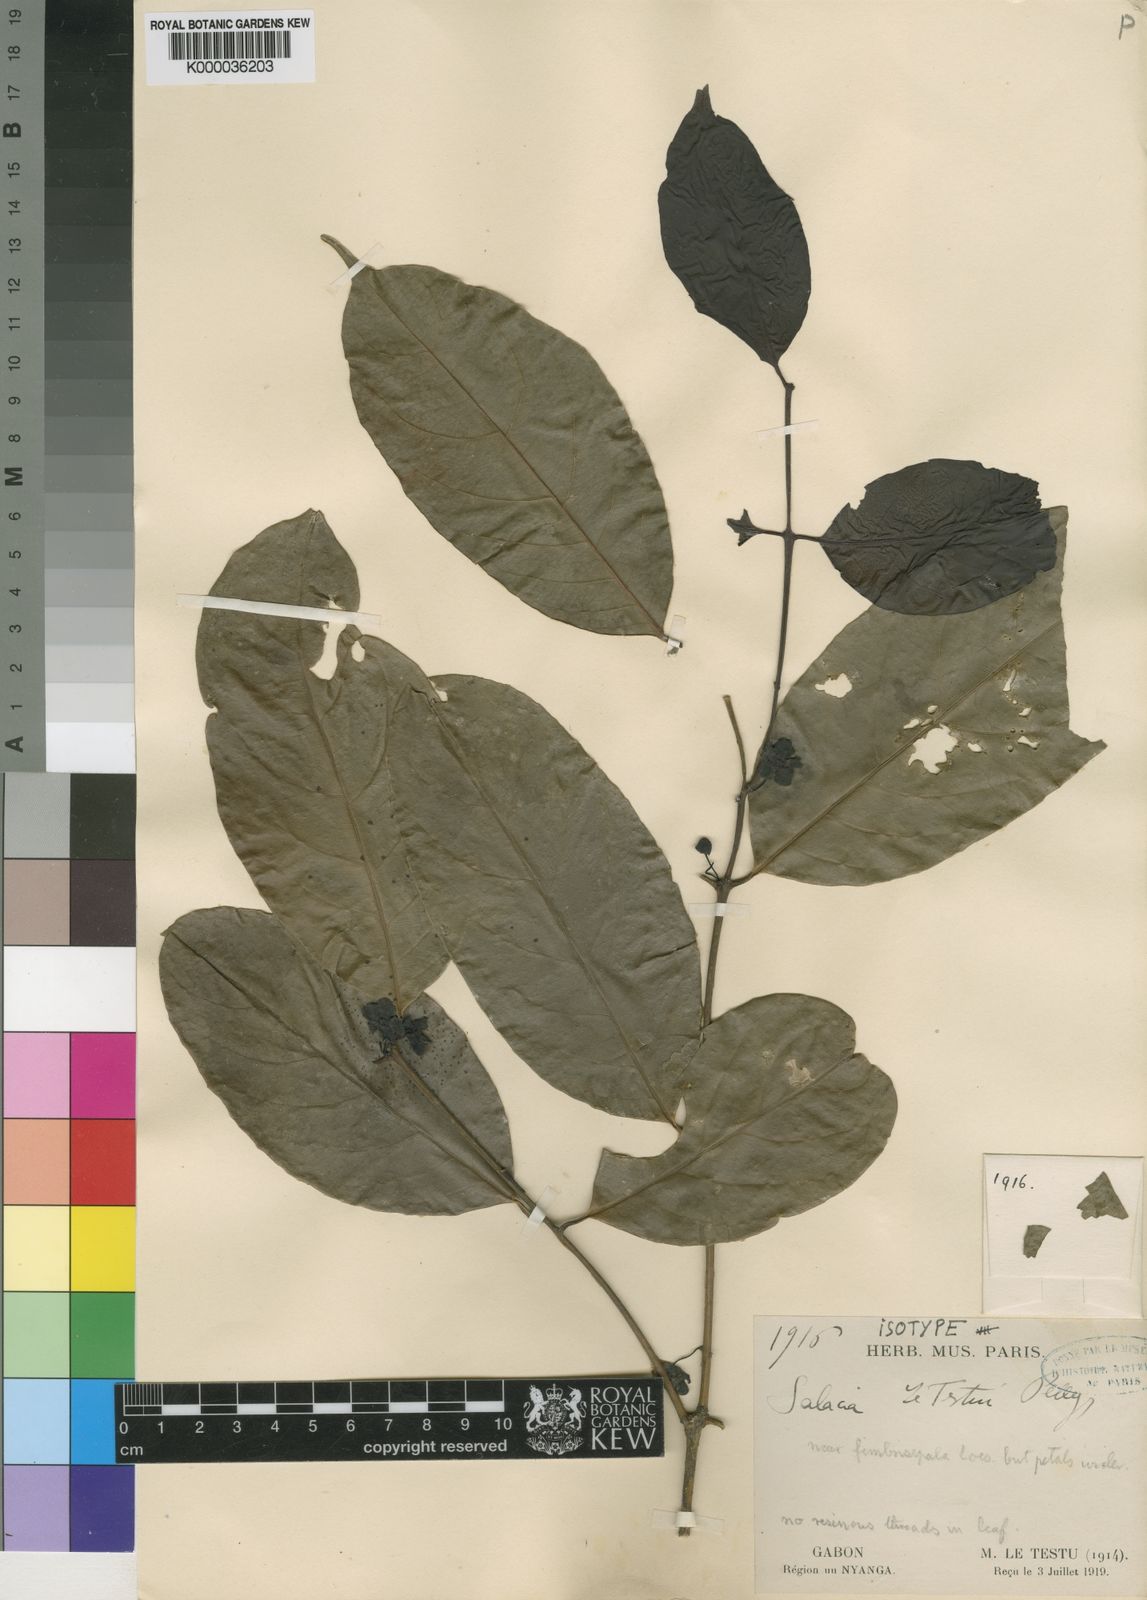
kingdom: Plantae
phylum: Tracheophyta
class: Magnoliopsida
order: Celastrales
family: Celastraceae
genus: Salacia
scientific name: Salacia letestui
